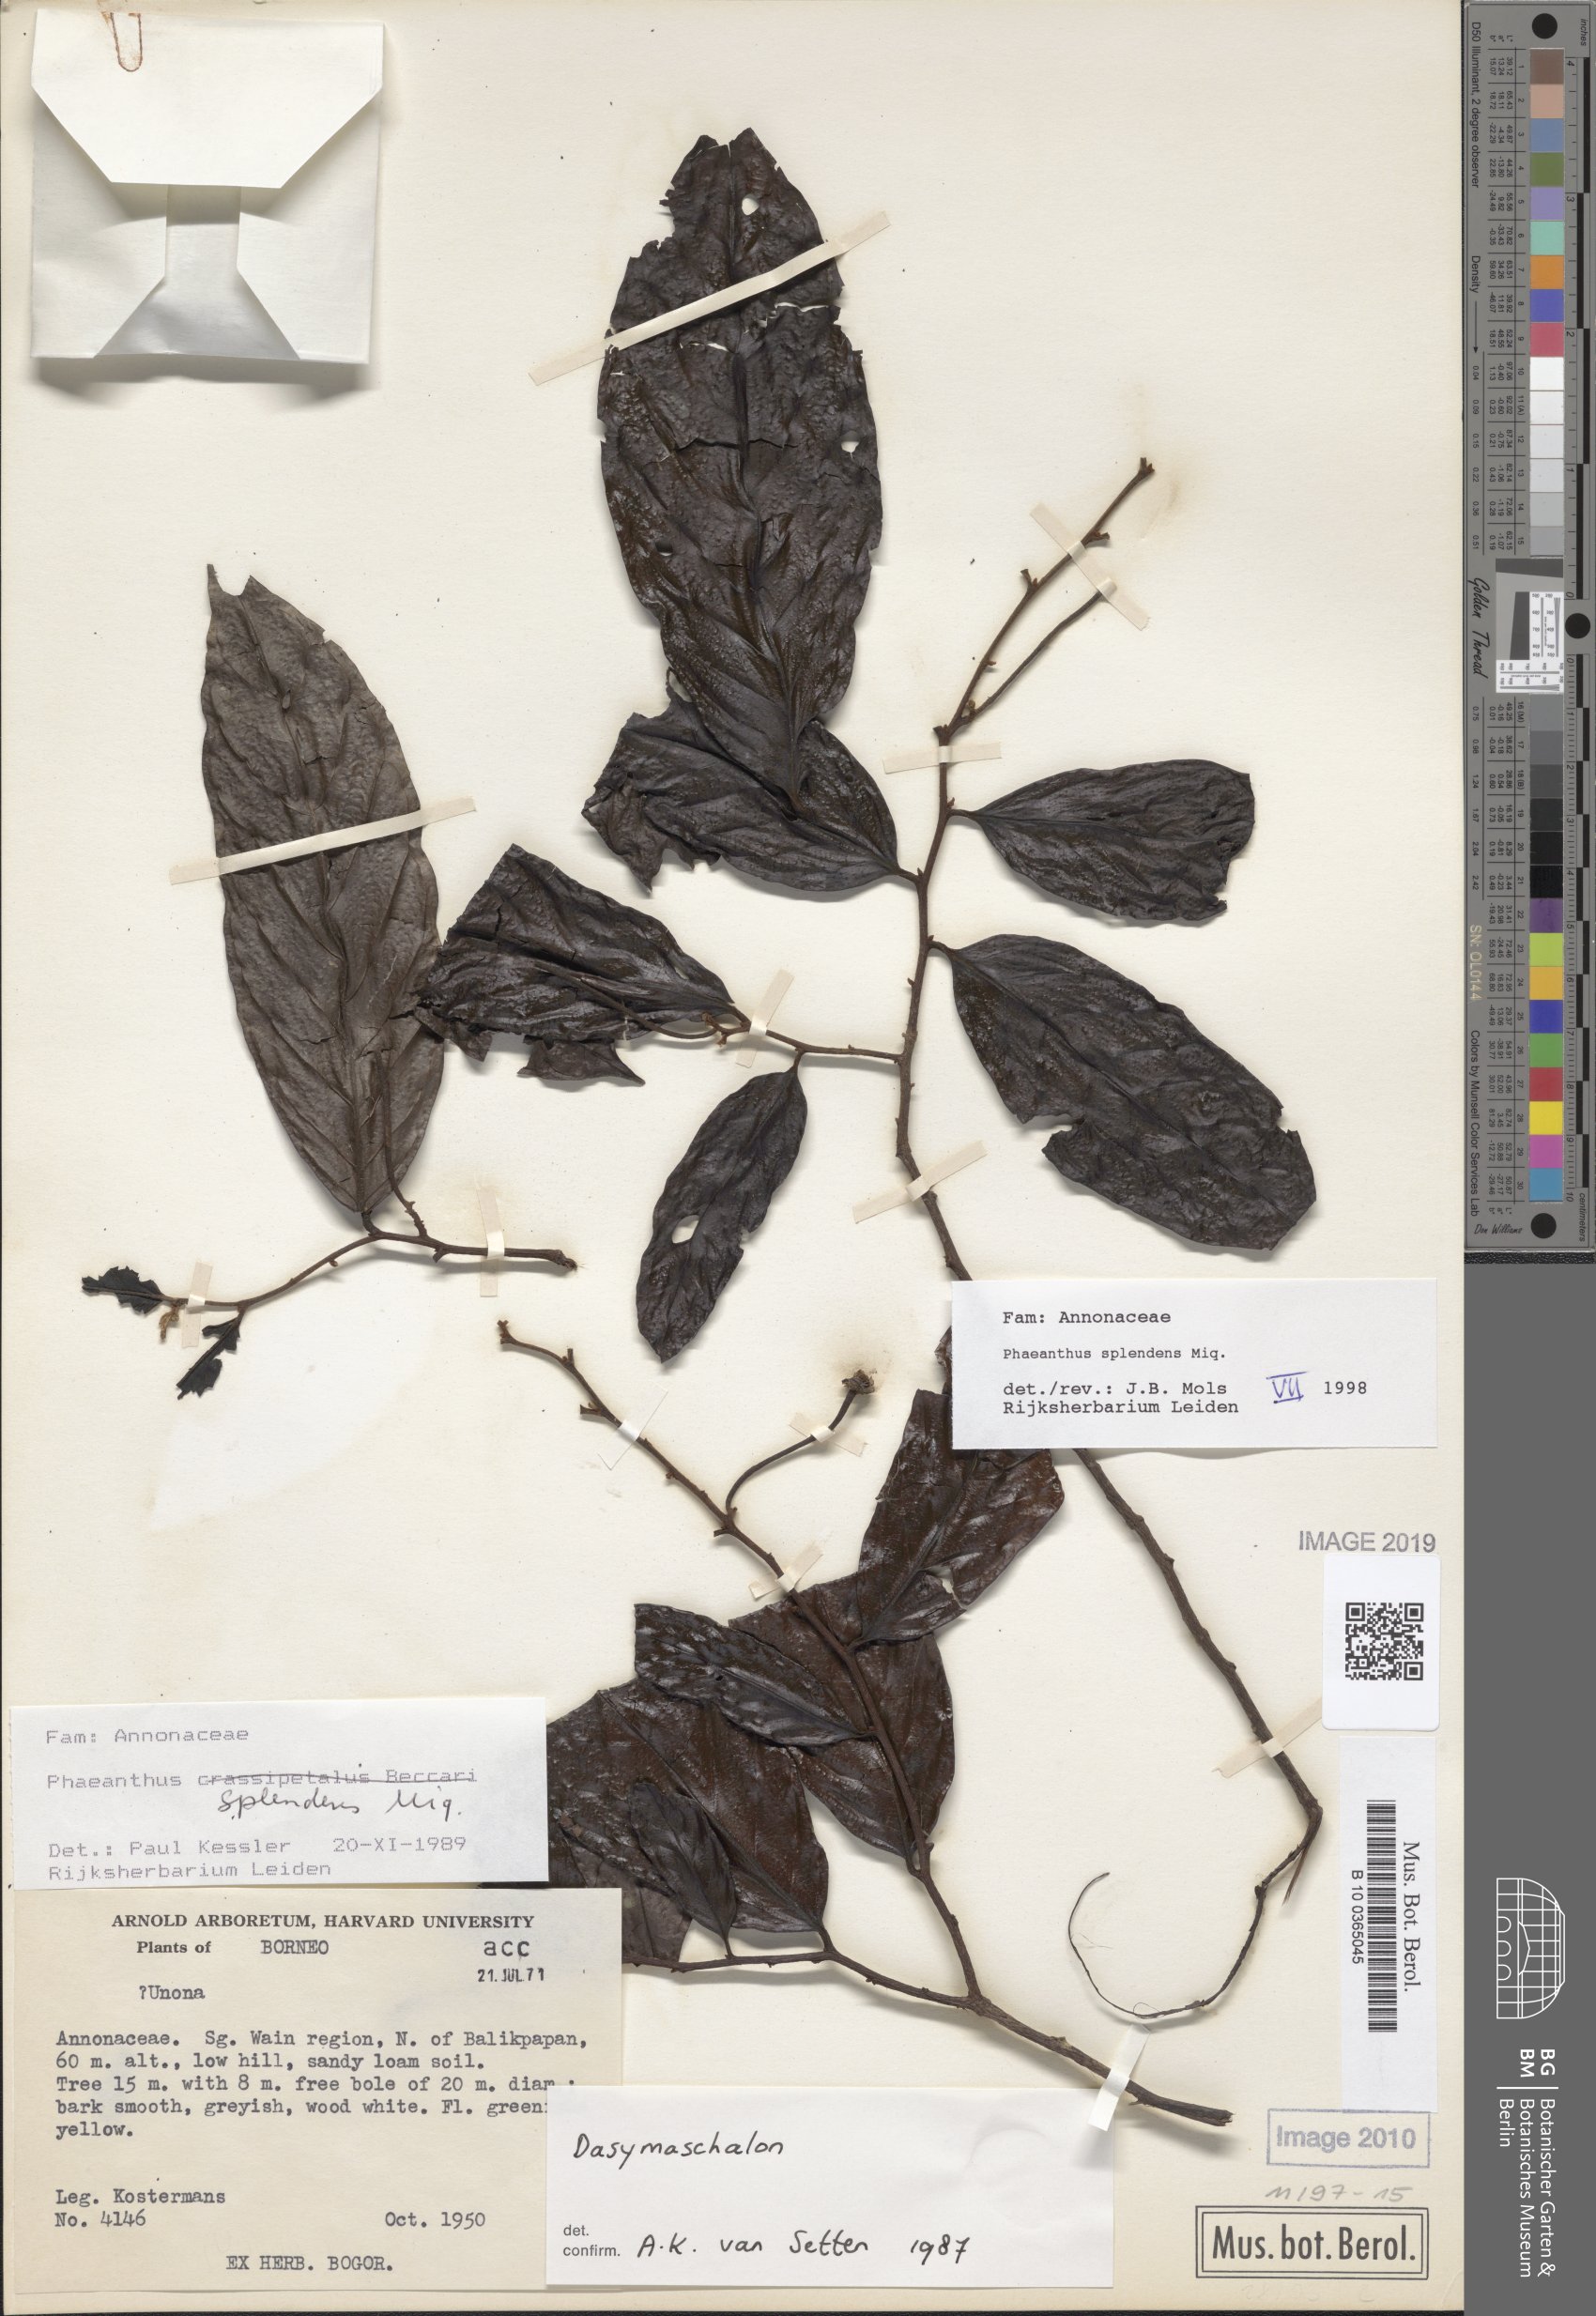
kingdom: Plantae
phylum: Tracheophyta
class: Magnoliopsida
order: Magnoliales
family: Annonaceae
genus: Phaeanthus
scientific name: Phaeanthus splendens
